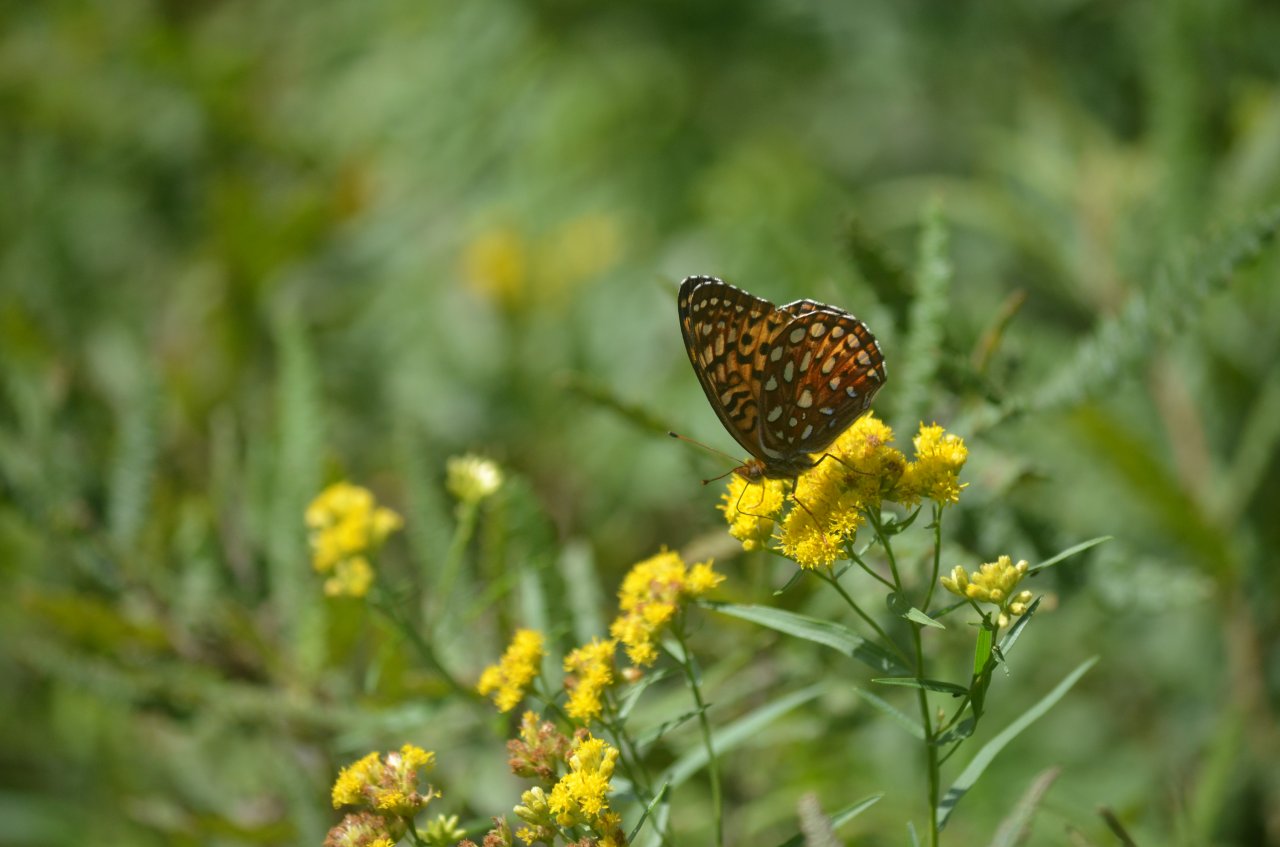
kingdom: Animalia
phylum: Arthropoda
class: Insecta
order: Lepidoptera
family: Nymphalidae
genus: Speyeria
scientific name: Speyeria aphrodite
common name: Aphrodite Fritillary
